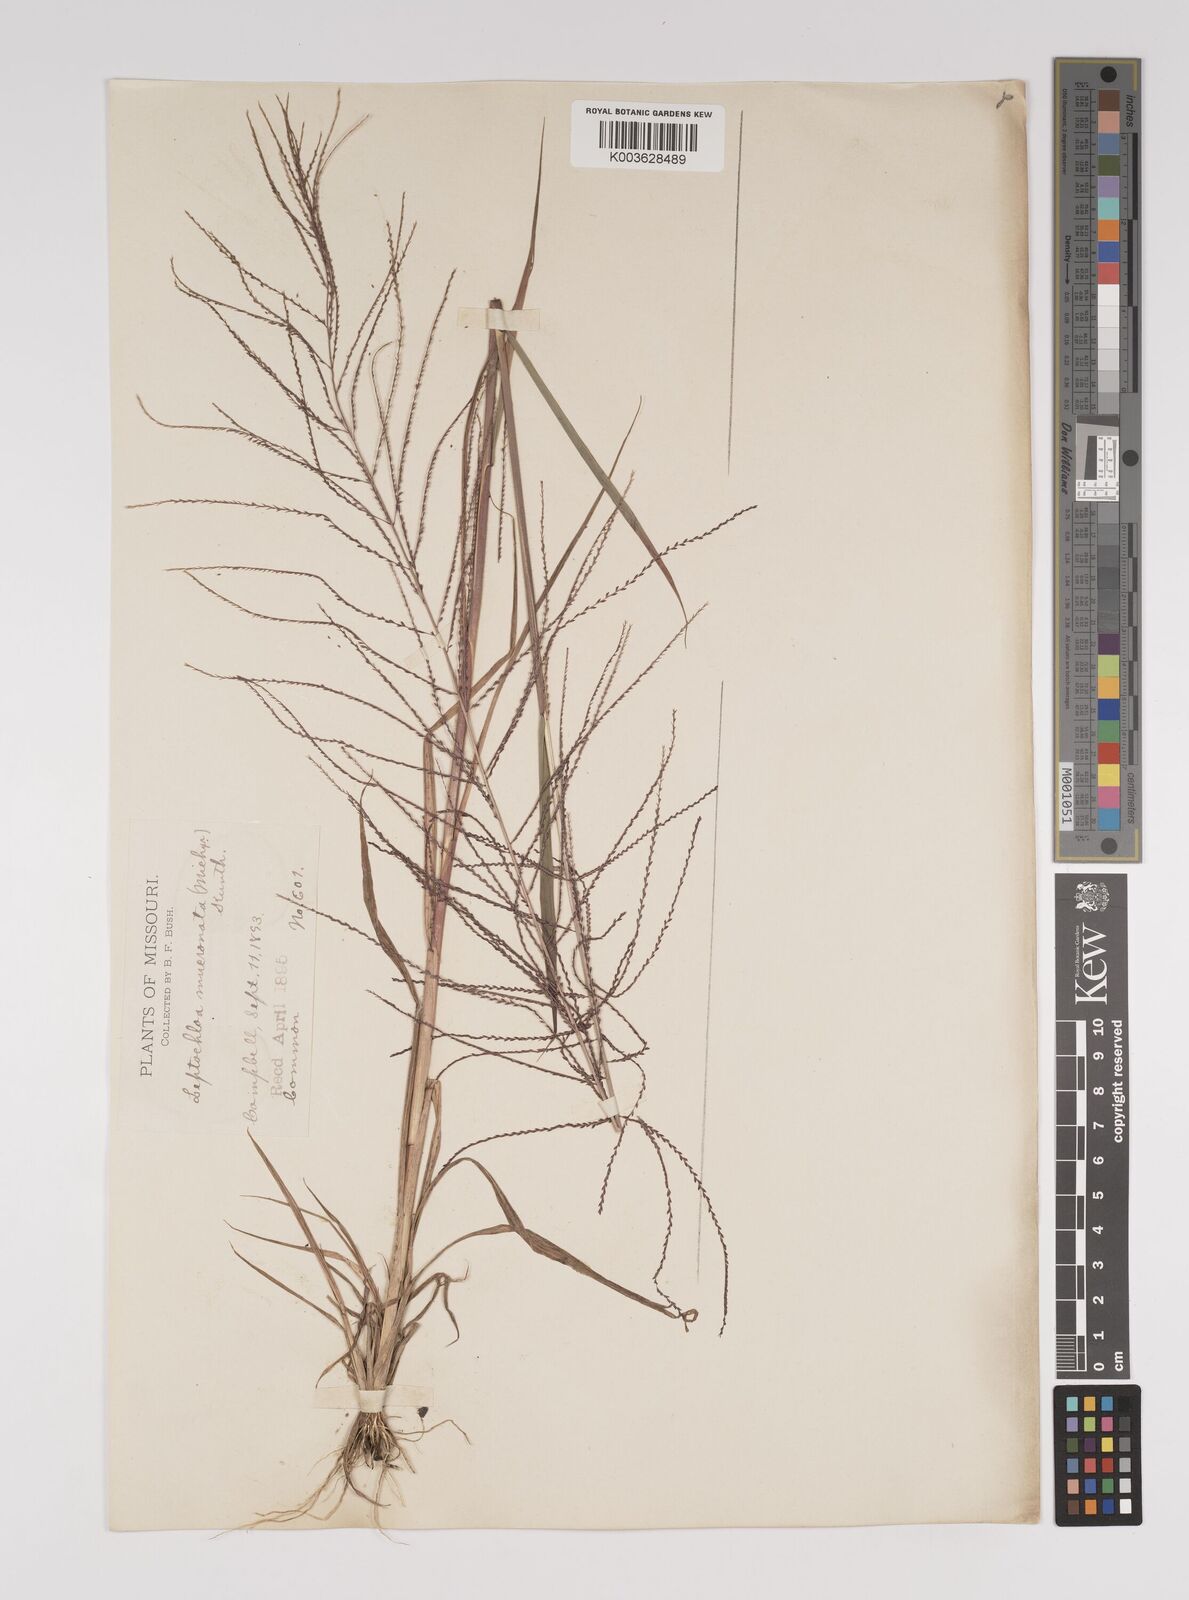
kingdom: Plantae
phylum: Tracheophyta
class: Liliopsida
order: Poales
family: Poaceae
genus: Leptochloa
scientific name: Leptochloa panicea
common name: Mucronate sprangletop
